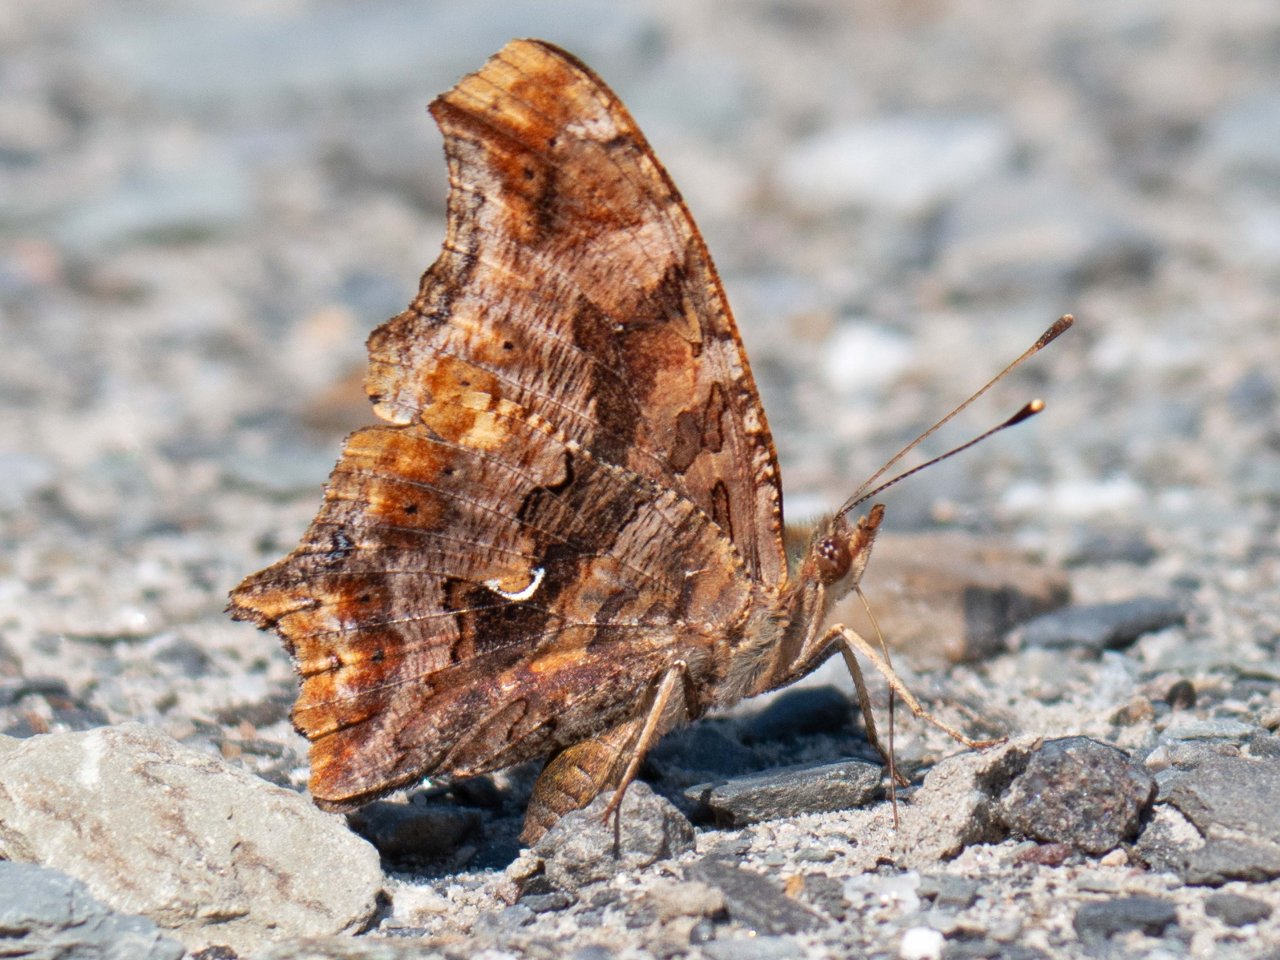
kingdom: Animalia
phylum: Arthropoda
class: Insecta
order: Lepidoptera
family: Nymphalidae
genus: Polygonia
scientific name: Polygonia comma
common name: Eastern Comma
